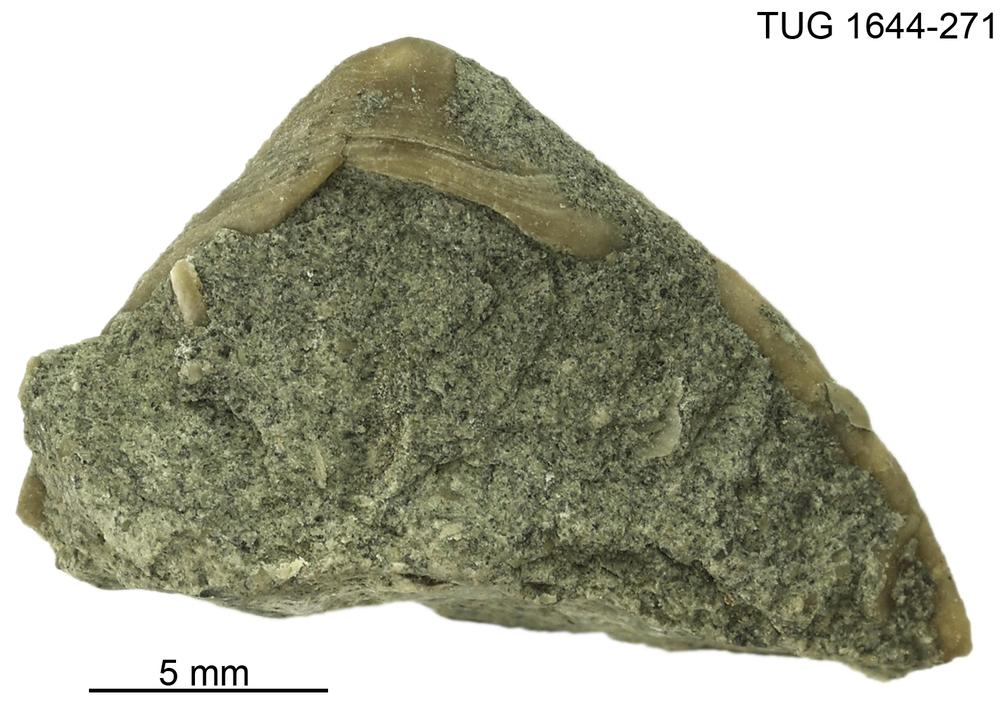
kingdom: Animalia
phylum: Mollusca
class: Monoplacophora
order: Tryblidiida
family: Tryblidiidae
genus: Pilina
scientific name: Pilina
